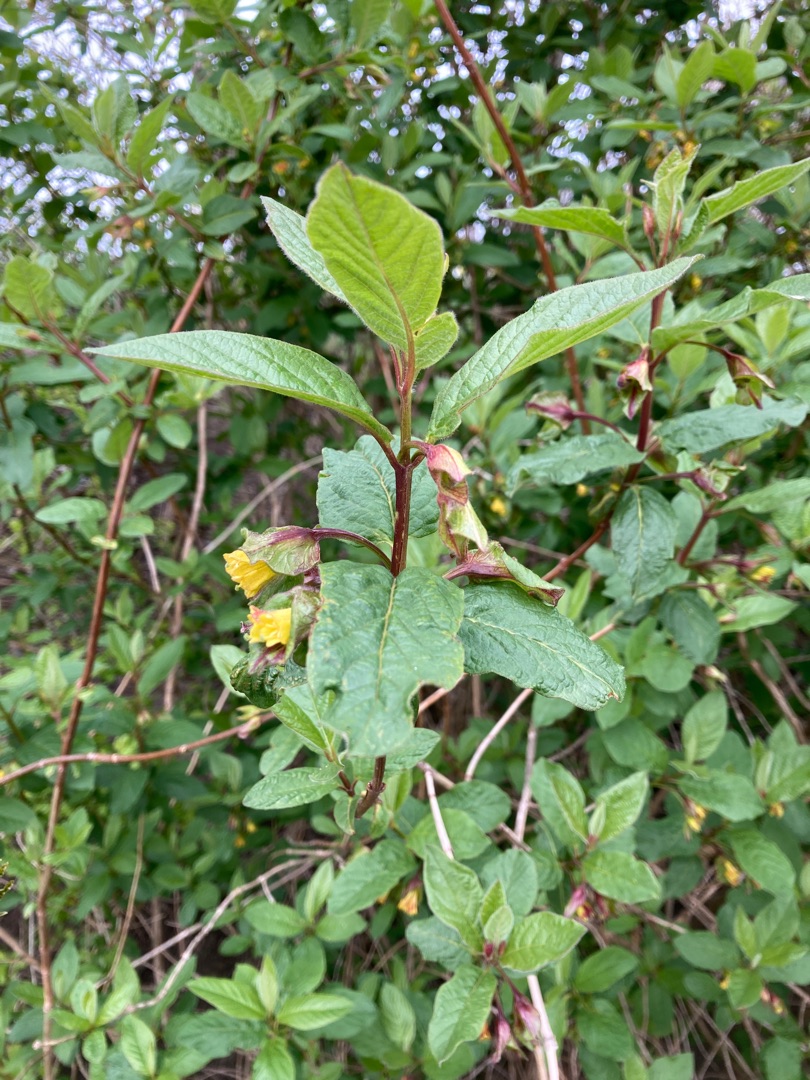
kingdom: Plantae
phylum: Tracheophyta
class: Magnoliopsida
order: Dipsacales
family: Caprifoliaceae
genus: Lonicera
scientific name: Lonicera involucrata
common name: Svøb-gedeblad (varietet)
